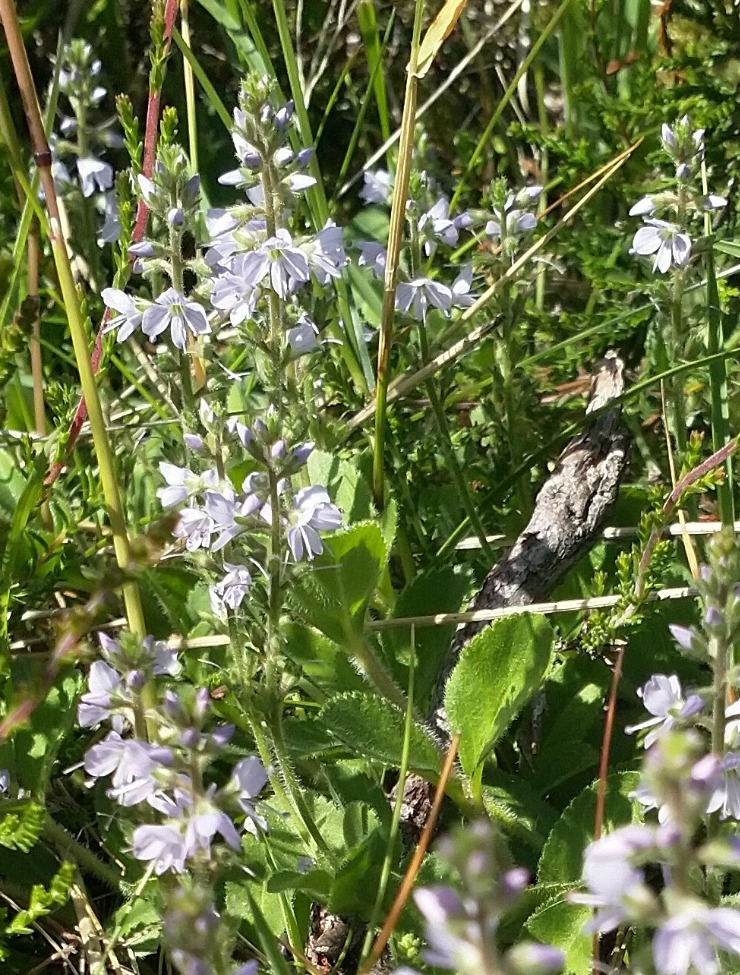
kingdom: Plantae
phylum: Tracheophyta
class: Magnoliopsida
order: Lamiales
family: Plantaginaceae
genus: Veronica
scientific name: Veronica officinalis
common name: Læge-ærenpris
